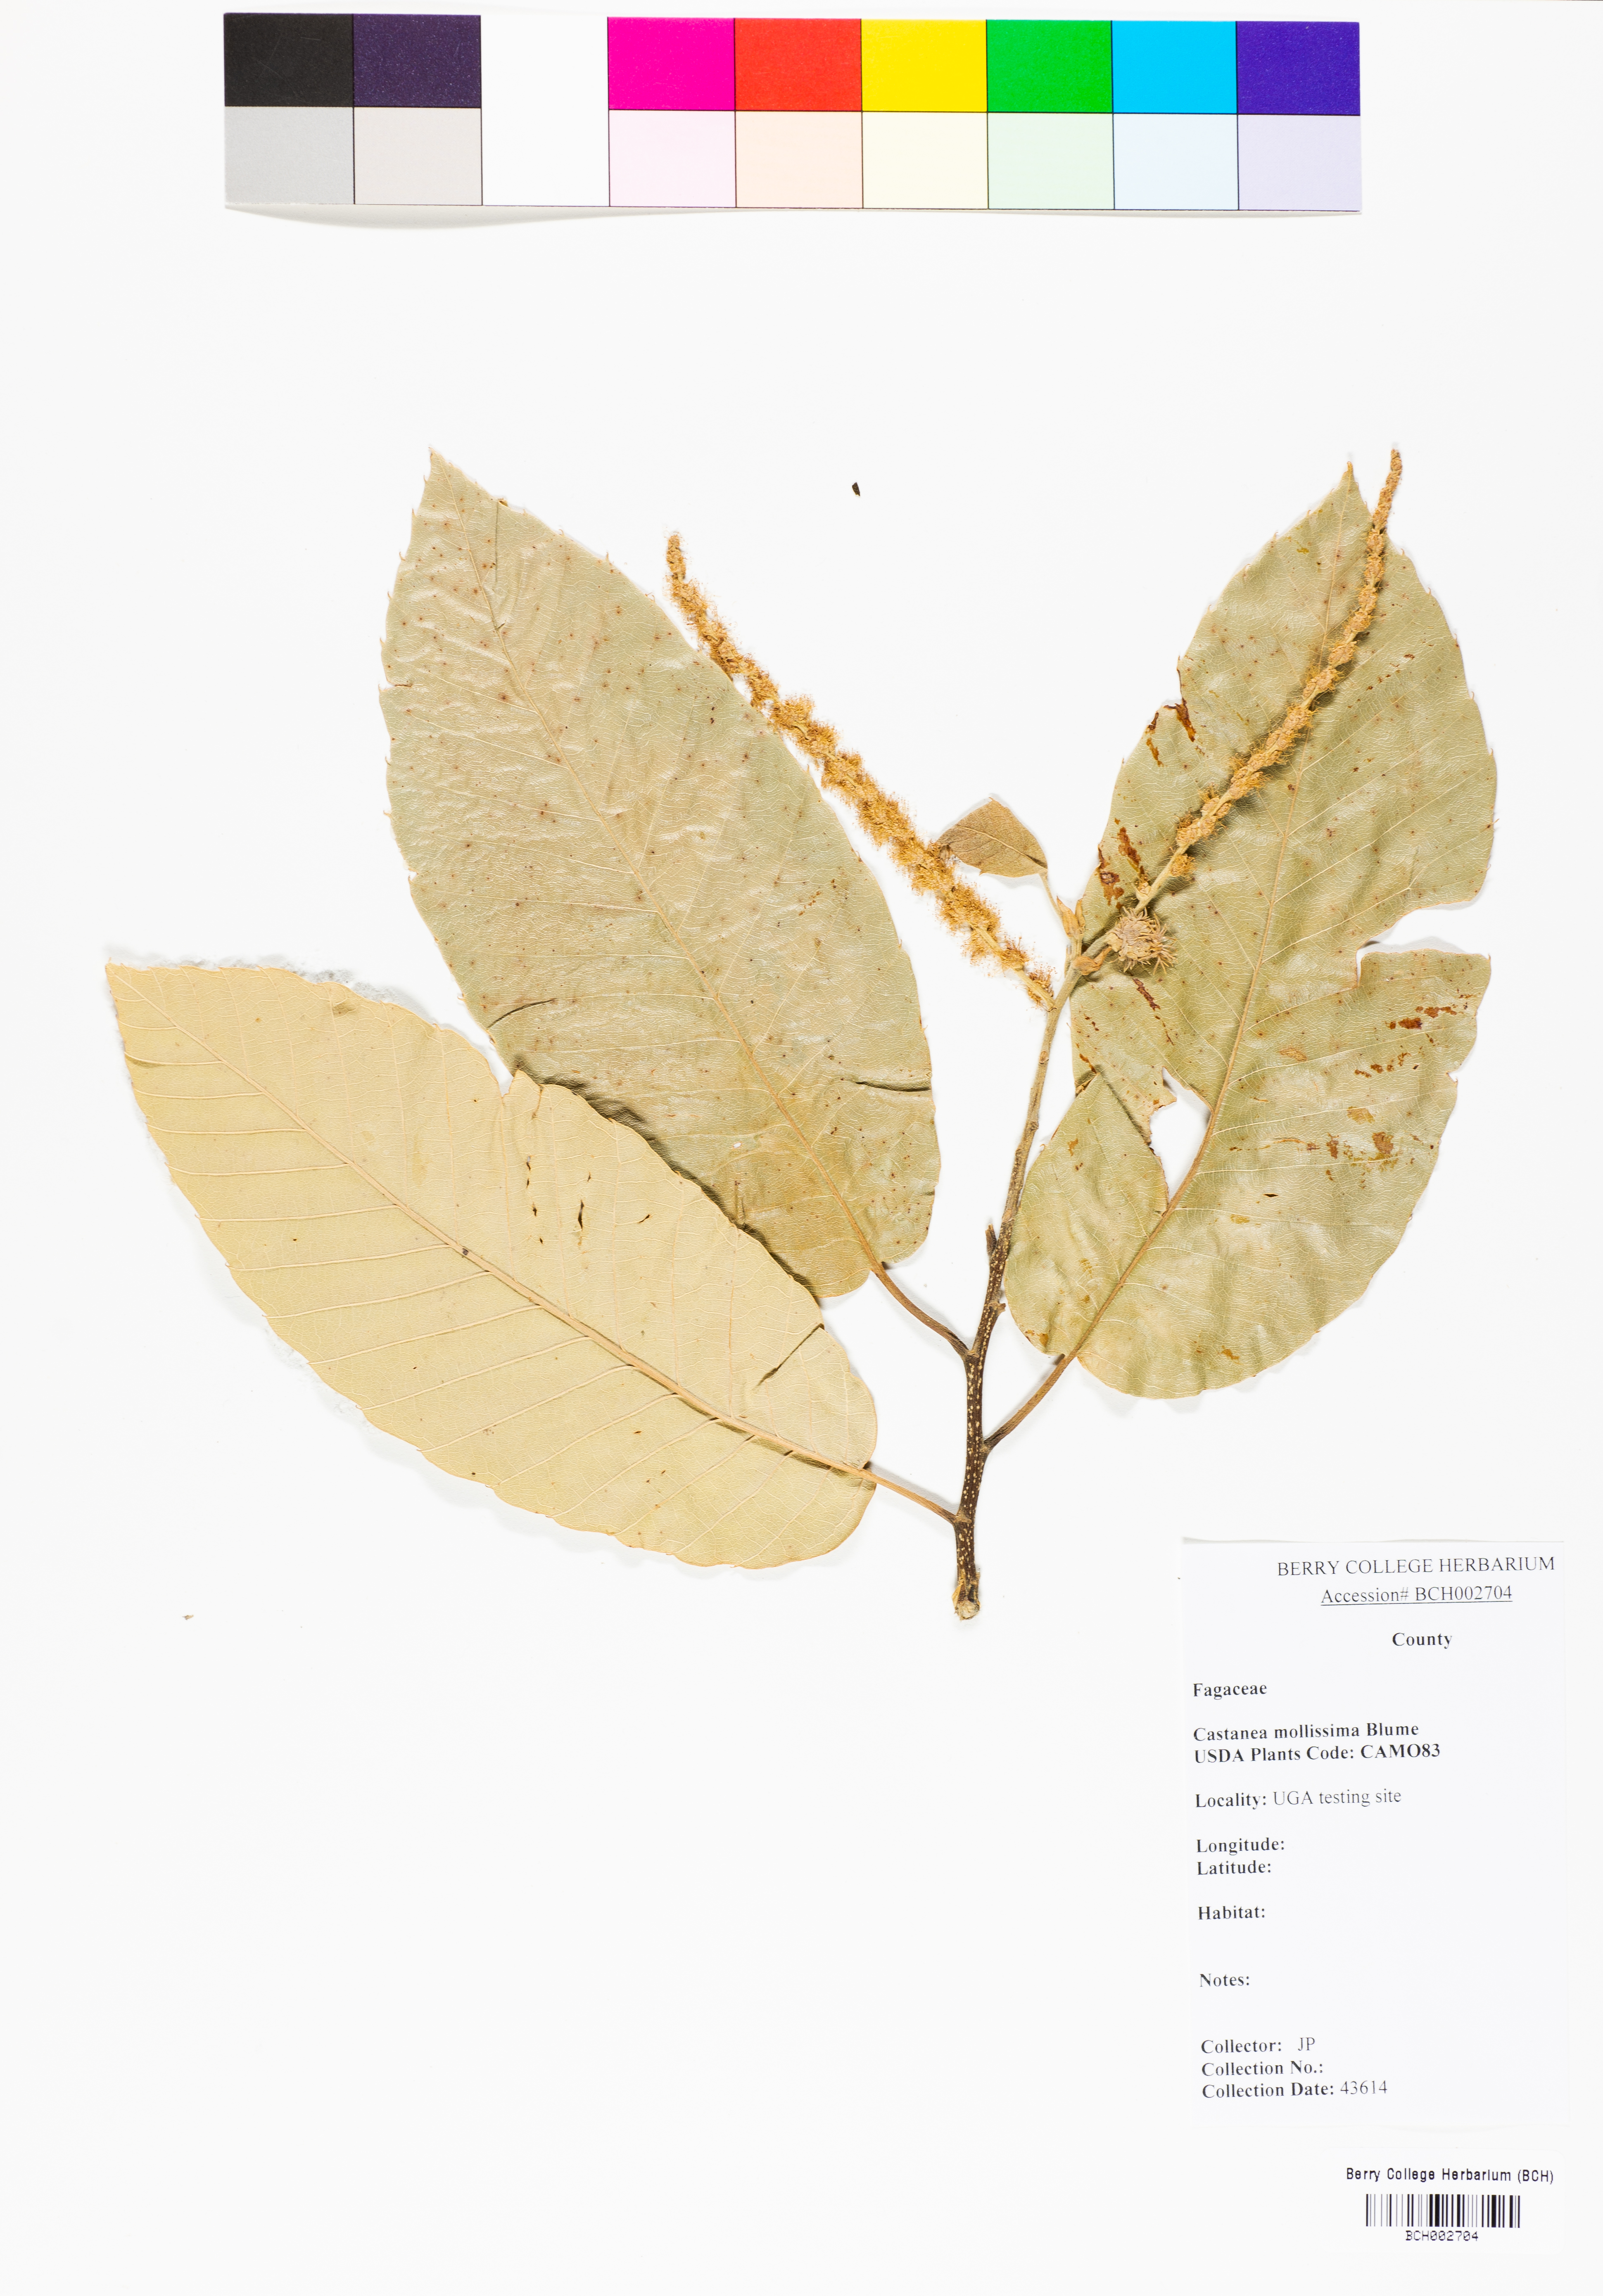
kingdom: Plantae
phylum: Tracheophyta
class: Magnoliopsida
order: Fagales
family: Fagaceae
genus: Castanea
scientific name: Castanea mollissima
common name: Chinese chestnut
